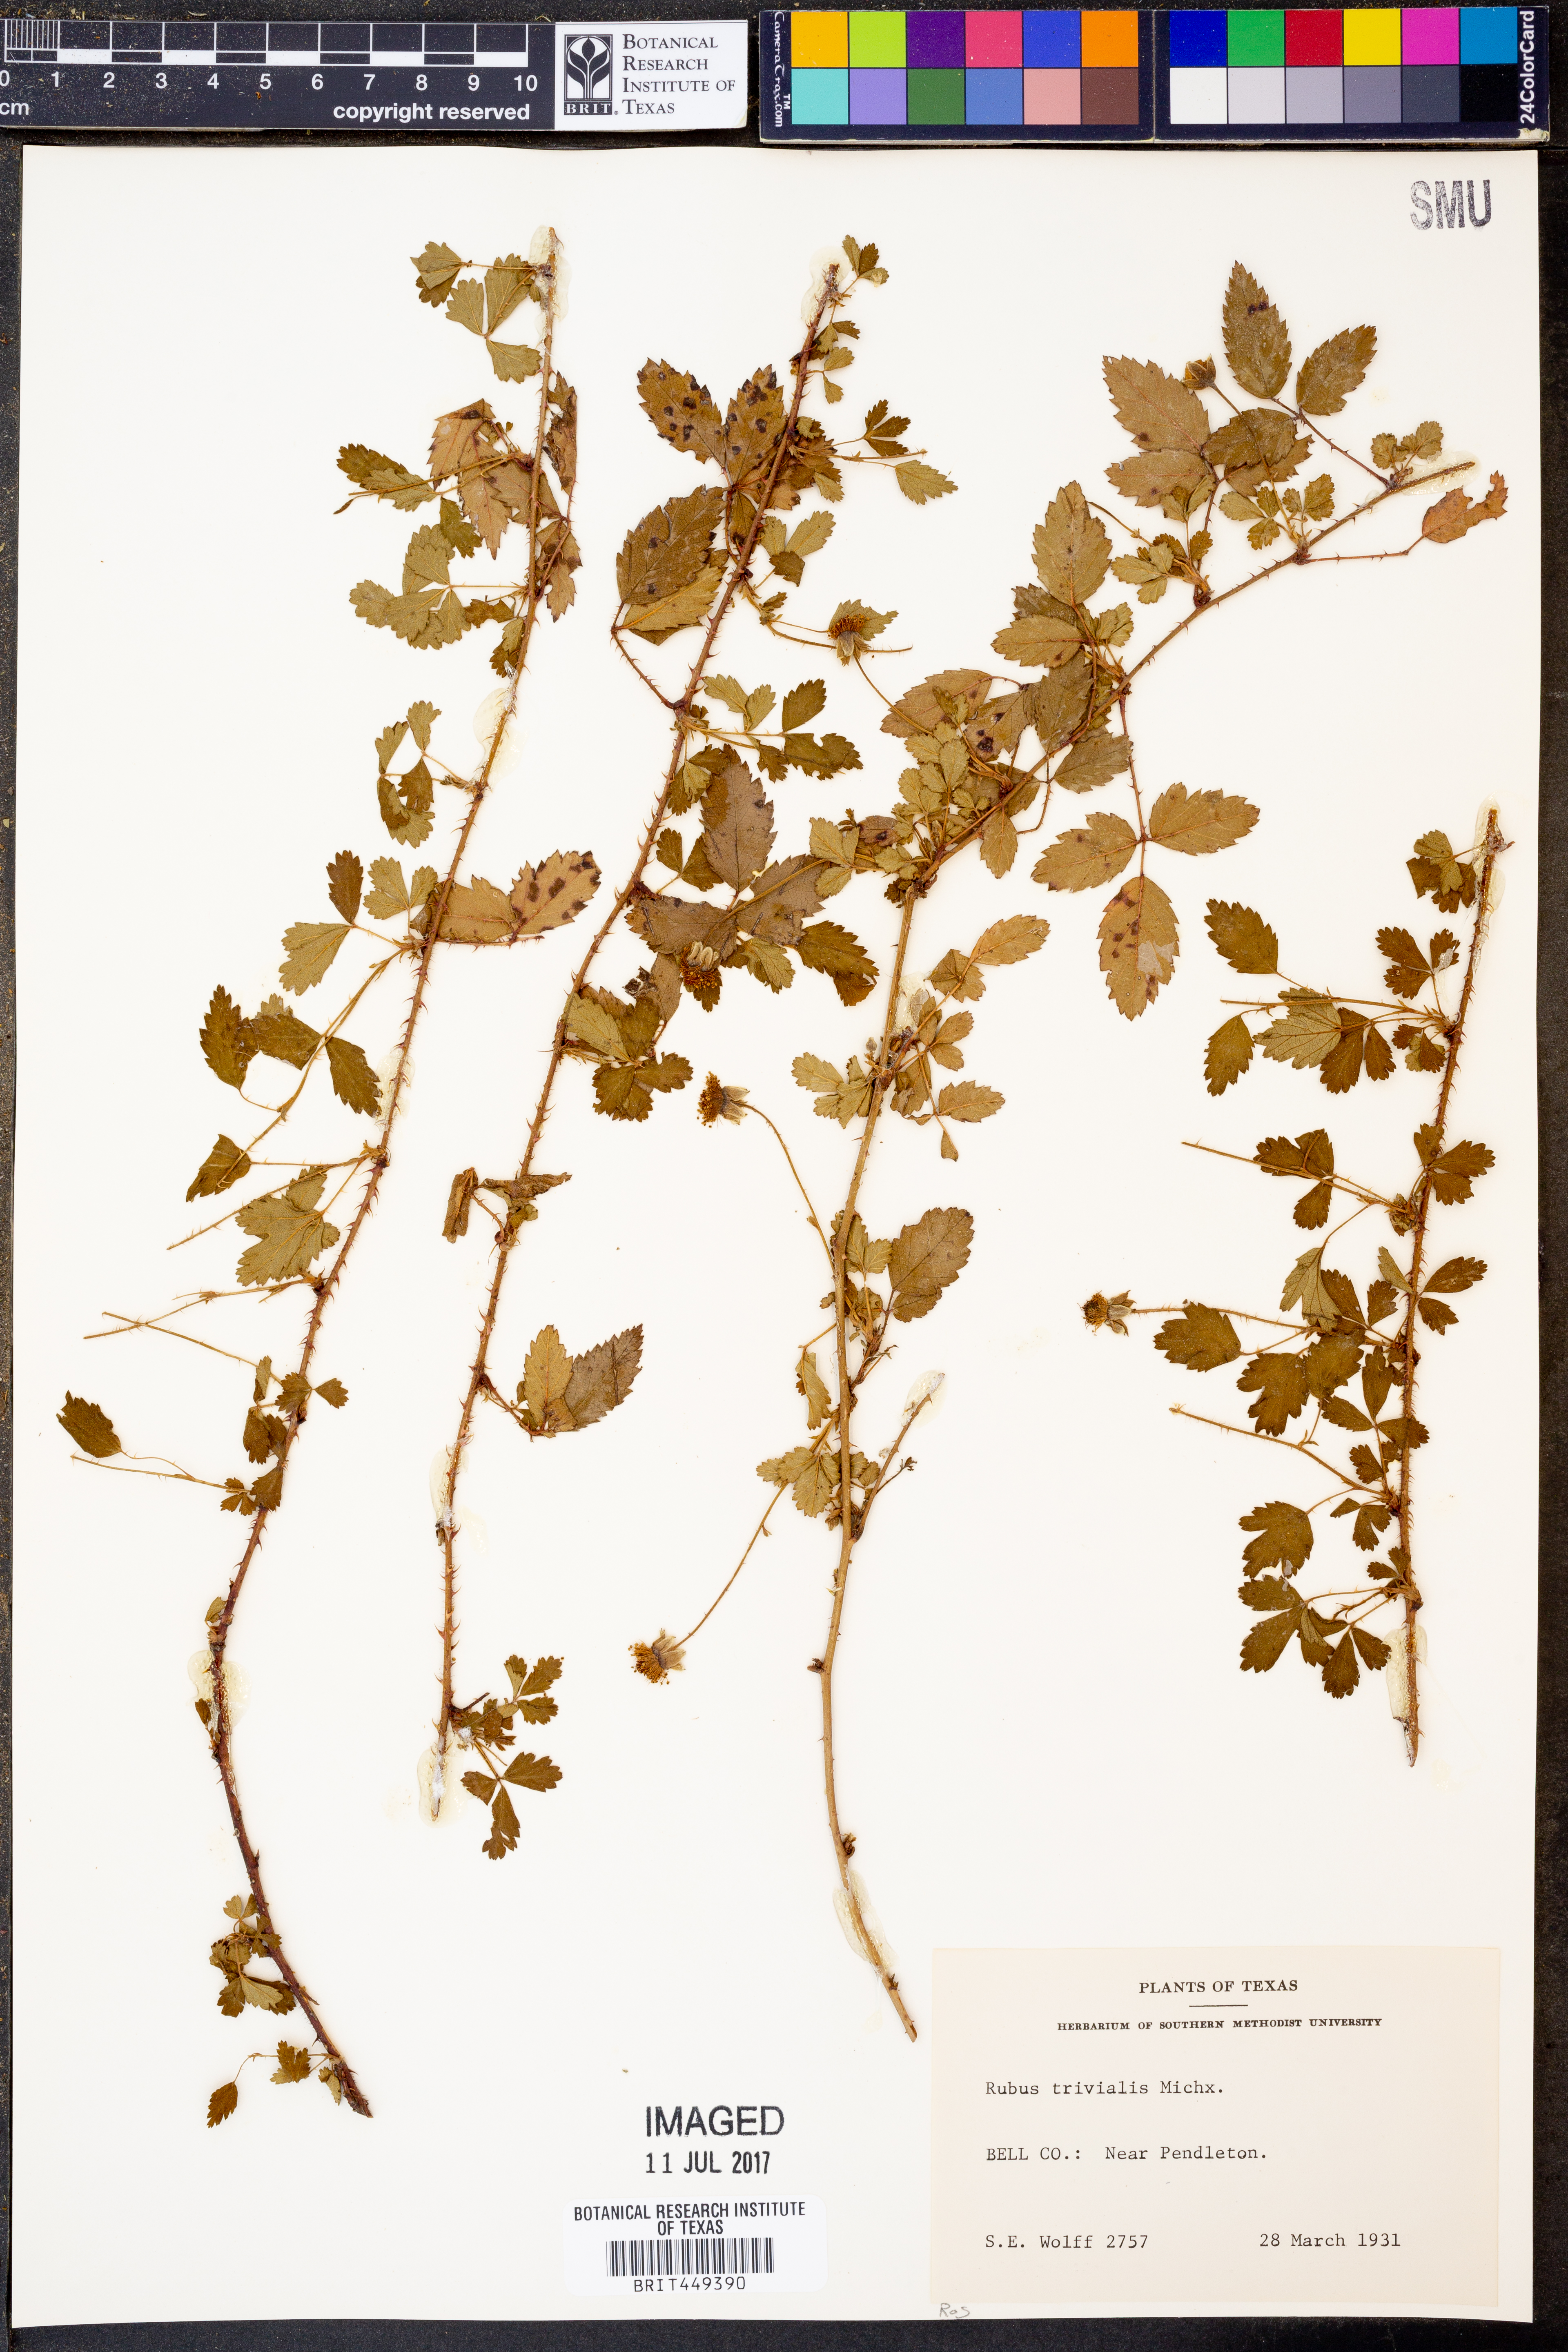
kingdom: Plantae
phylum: Tracheophyta
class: Magnoliopsida
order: Rosales
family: Rosaceae
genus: Rubus
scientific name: Rubus trivialis
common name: Southern dewberry
